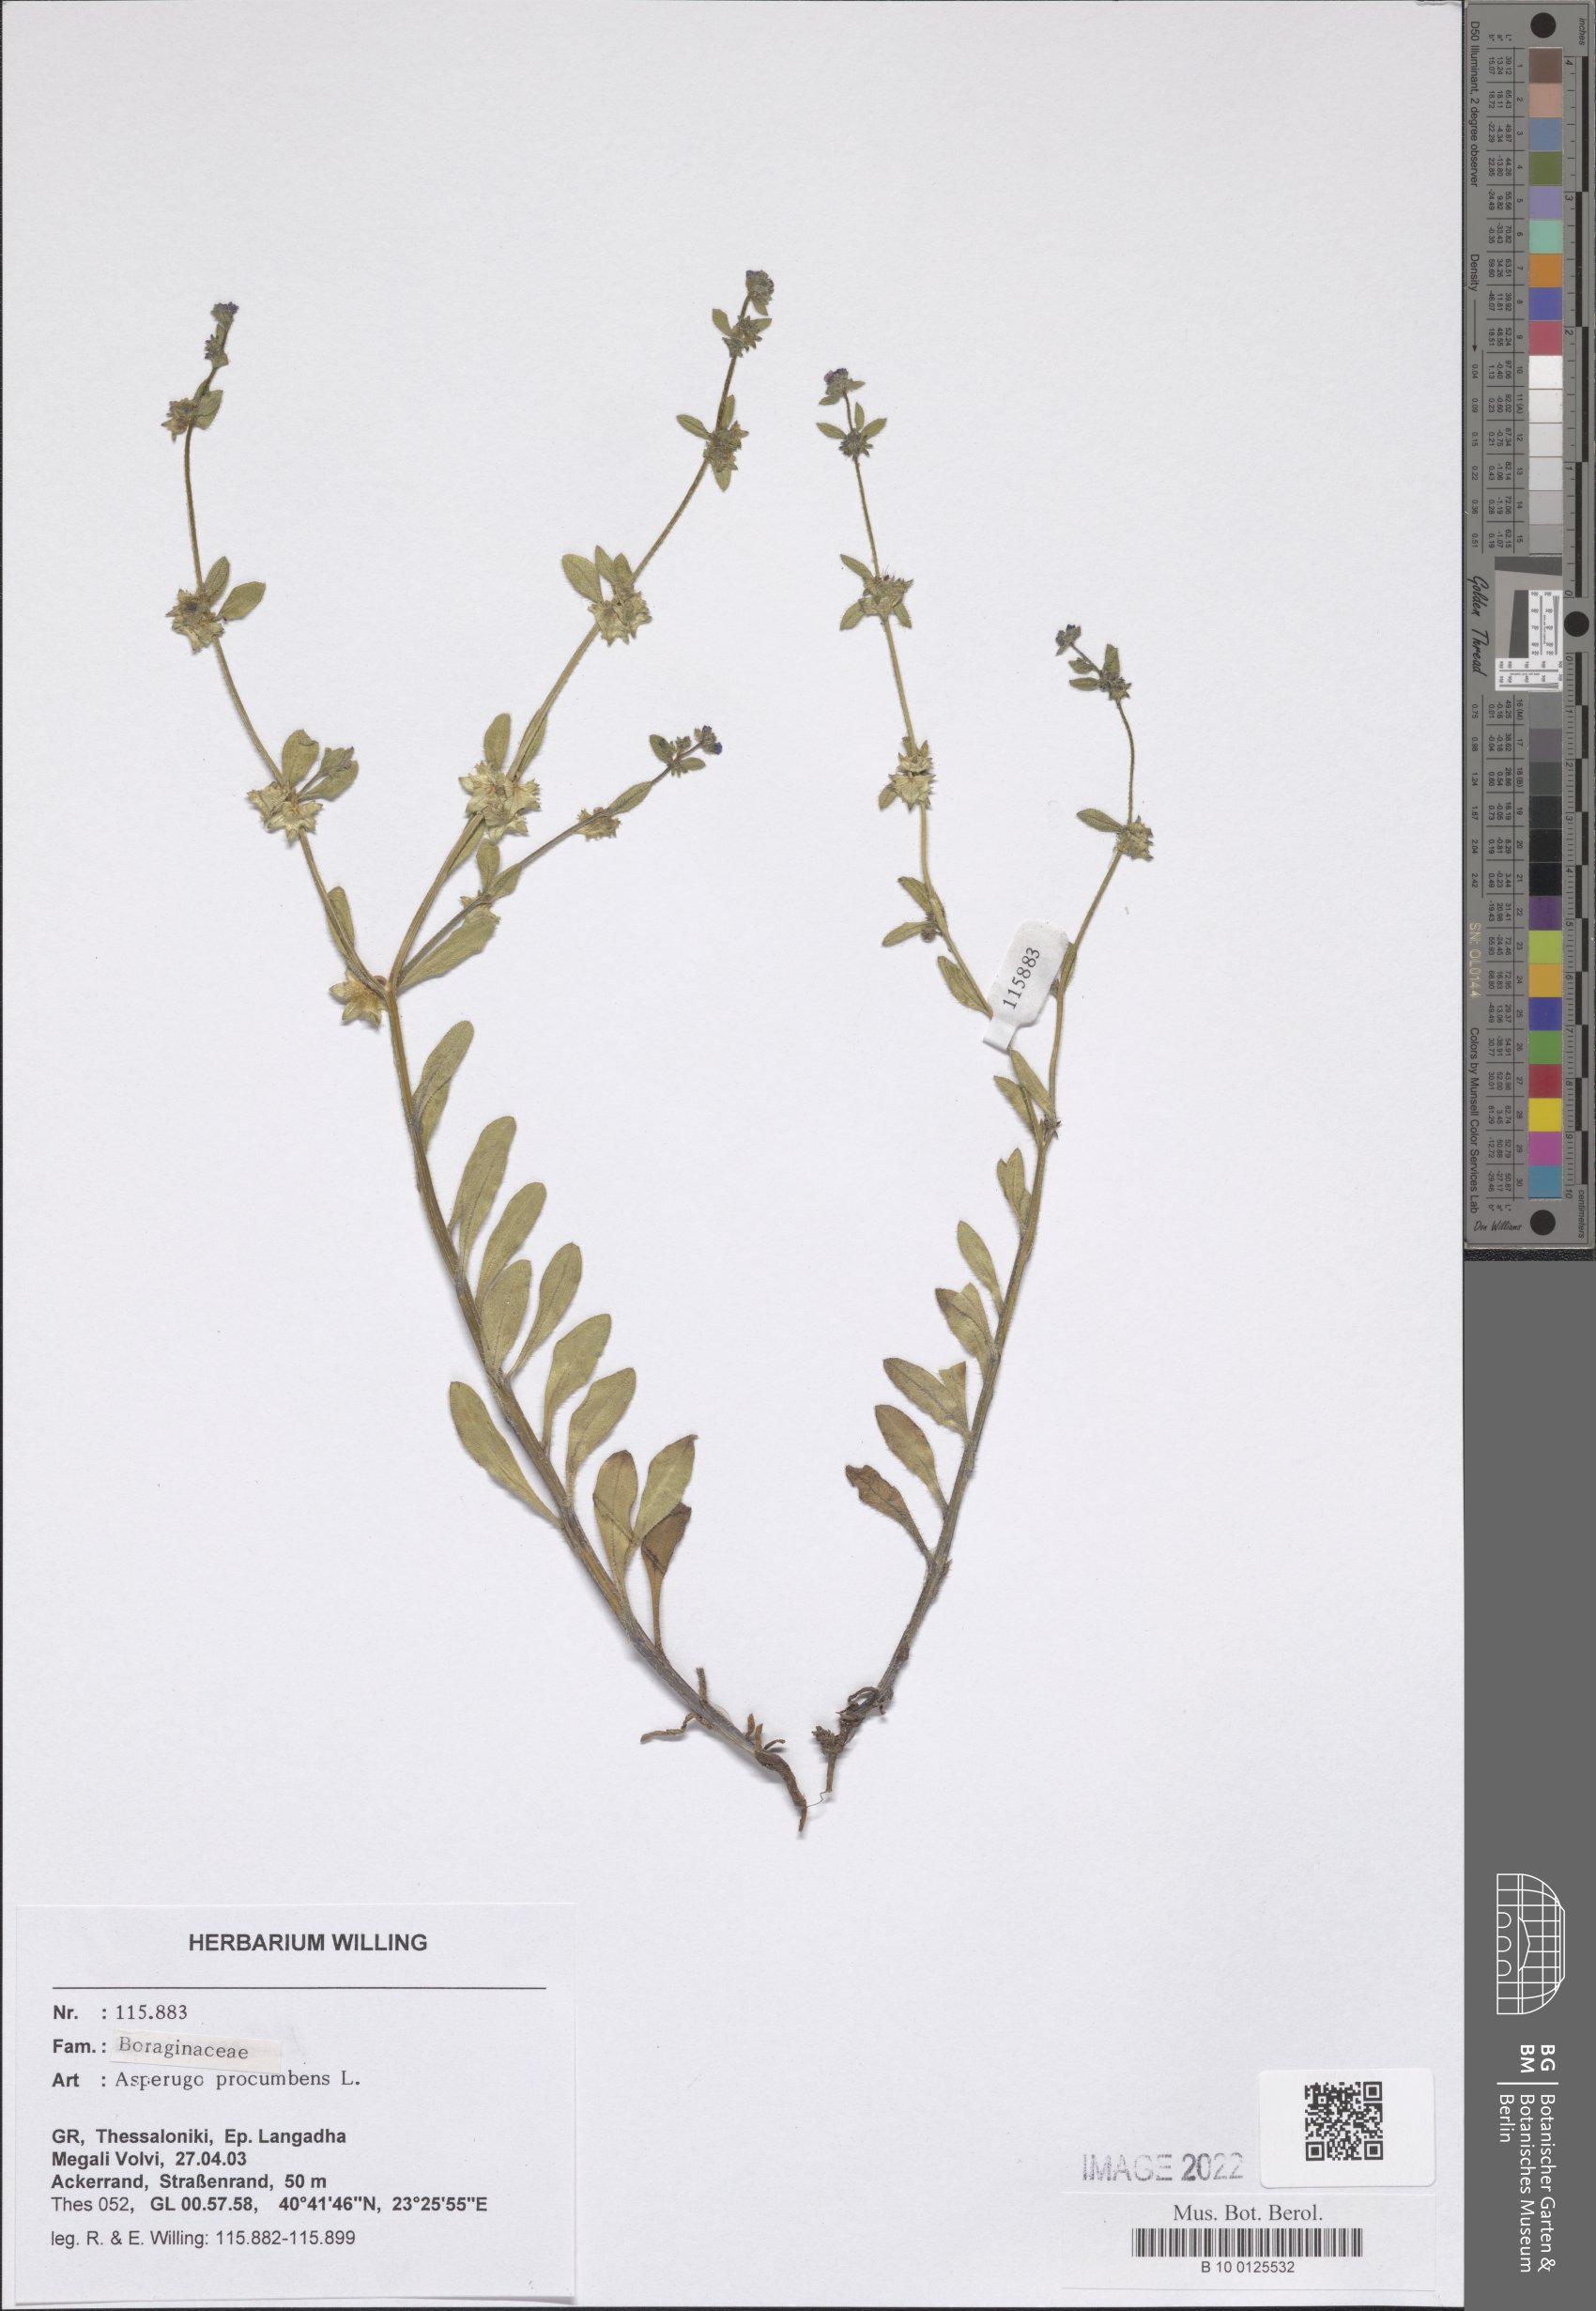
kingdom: Plantae
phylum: Tracheophyta
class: Magnoliopsida
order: Boraginales
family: Boraginaceae
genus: Asperugo
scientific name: Asperugo procumbens
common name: Madwort
